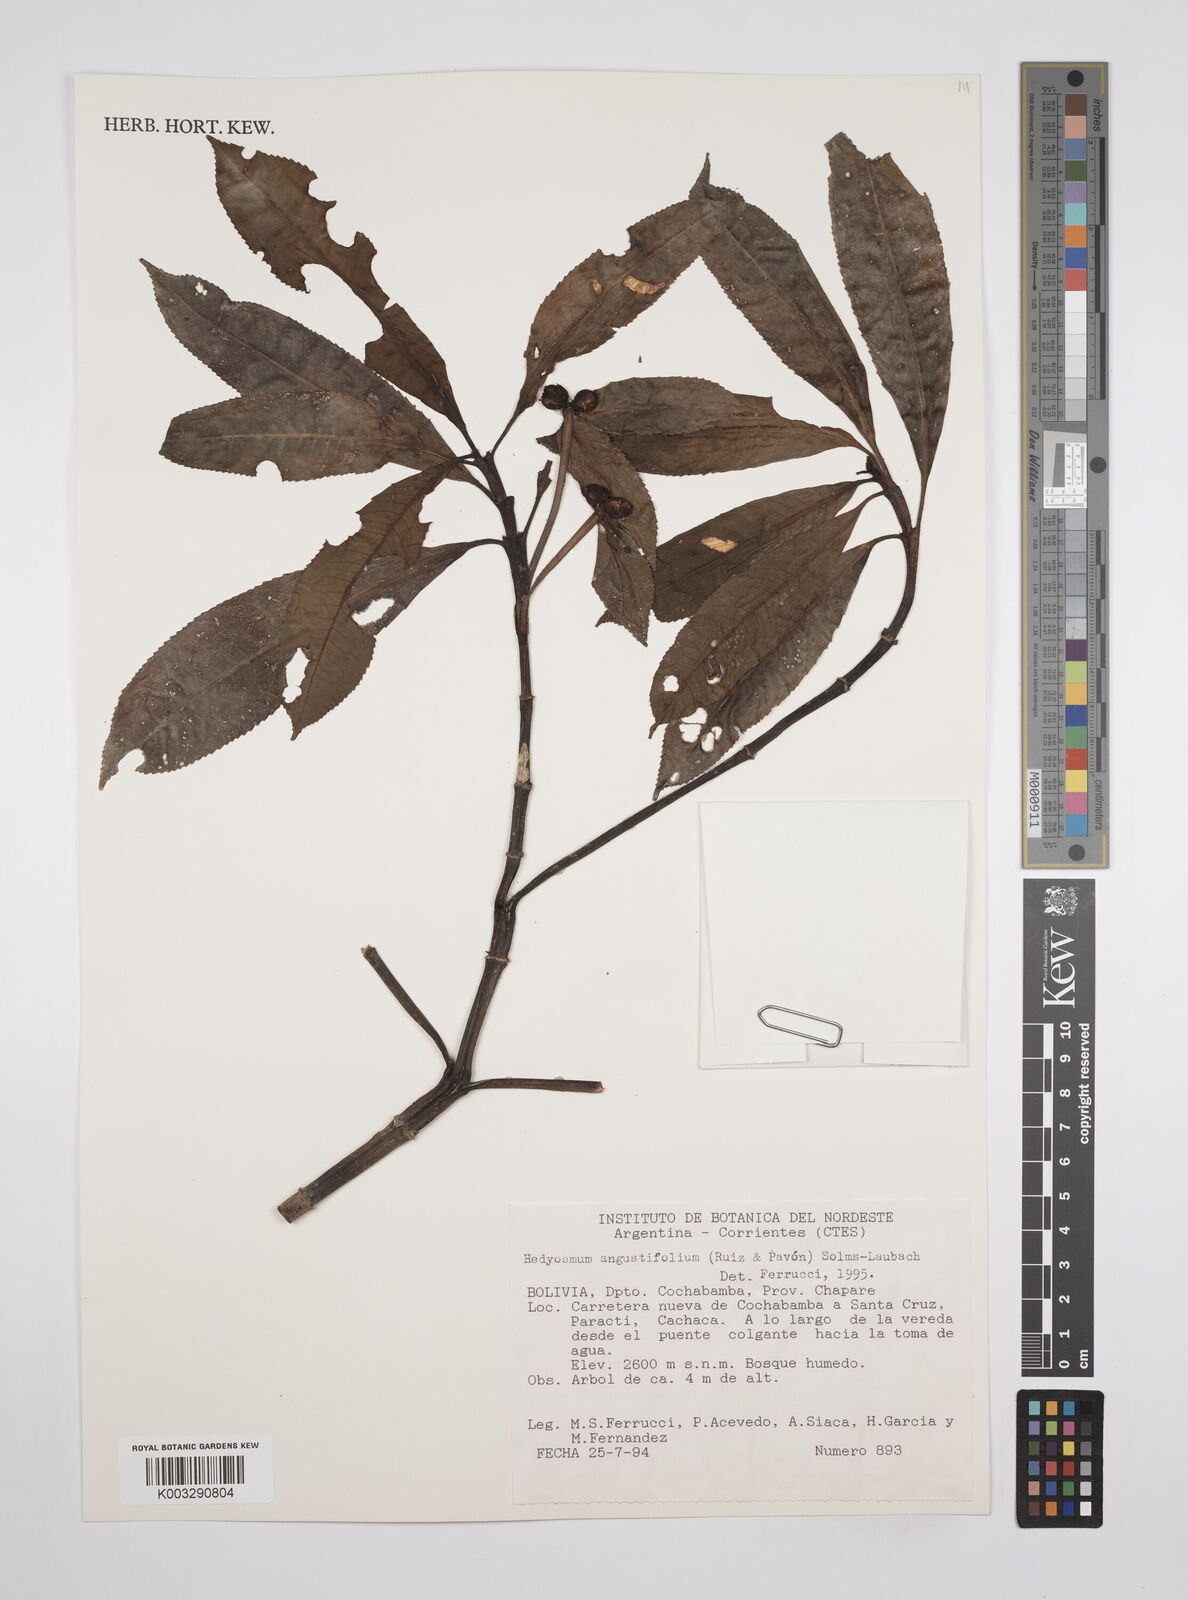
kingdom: Plantae
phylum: Tracheophyta
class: Magnoliopsida
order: Chloranthales
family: Chloranthaceae
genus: Hedyosmum
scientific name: Hedyosmum angustifolium
